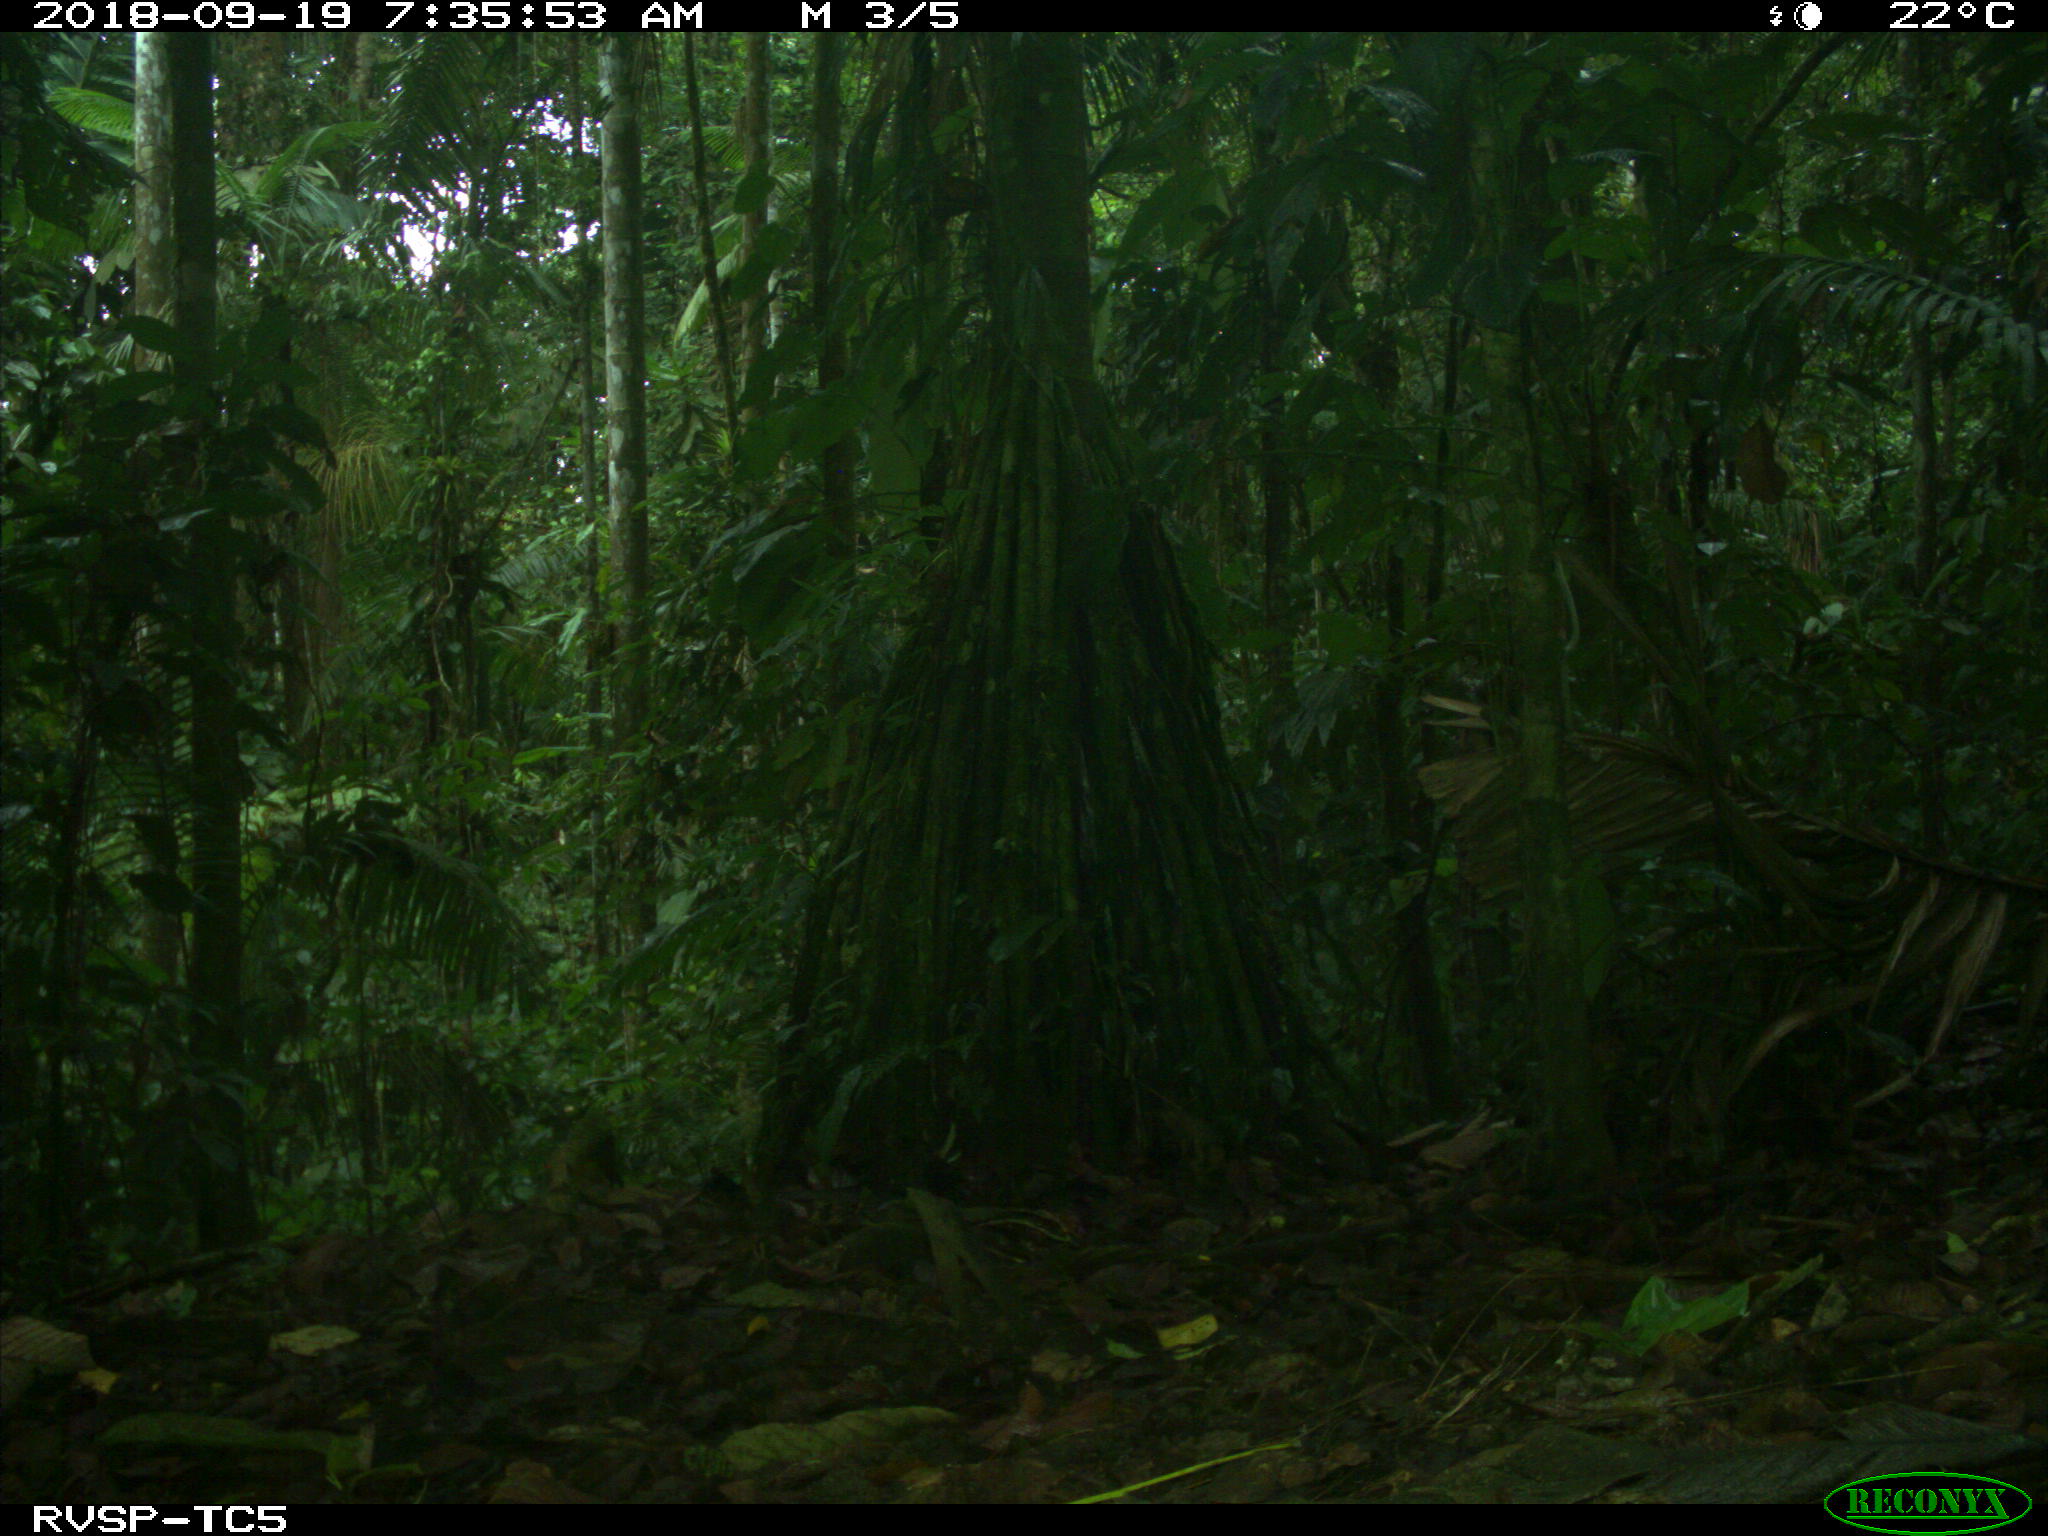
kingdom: Animalia
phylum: Chordata
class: Mammalia
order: Rodentia
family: Dasyproctidae
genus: Dasyprocta
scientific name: Dasyprocta punctata
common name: Central american agouti
